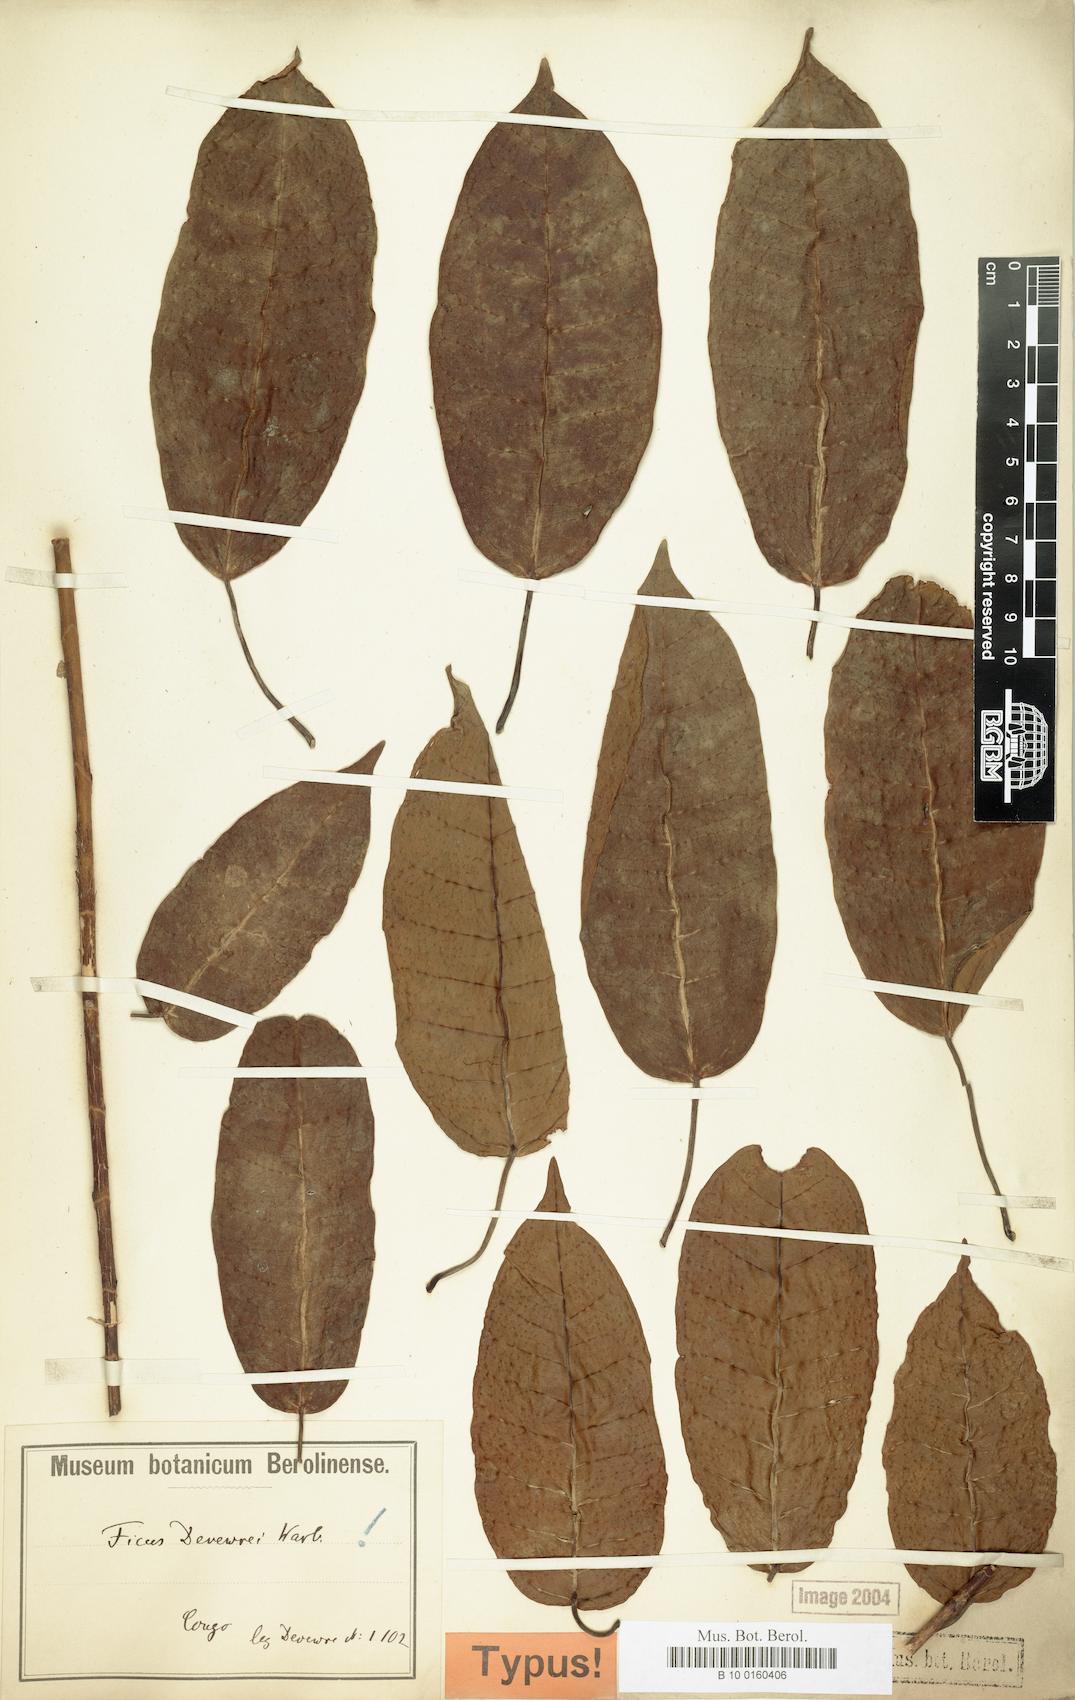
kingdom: Plantae
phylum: Tracheophyta
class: Magnoliopsida
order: Rosales
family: Moraceae
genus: Ficus
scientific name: Ficus ottoniifolia
